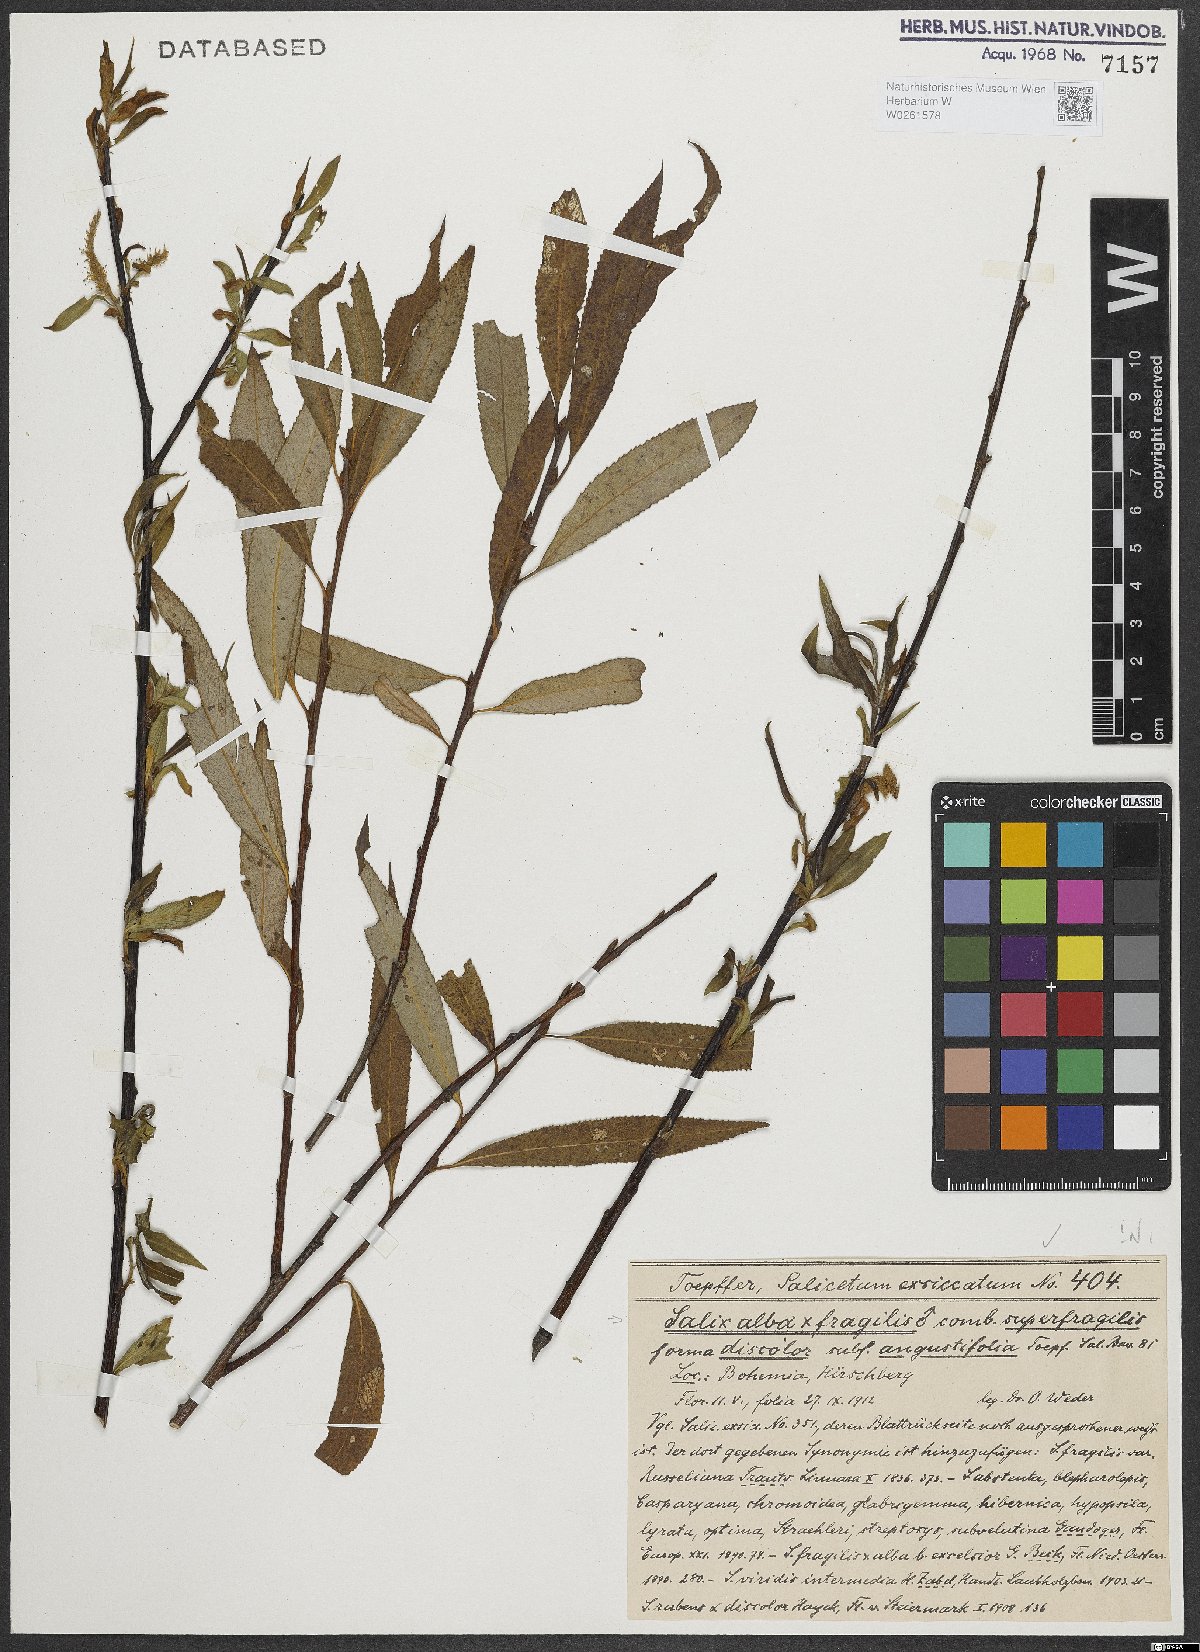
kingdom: Plantae
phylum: Tracheophyta
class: Magnoliopsida
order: Malpighiales
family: Salicaceae
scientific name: Salicaceae
